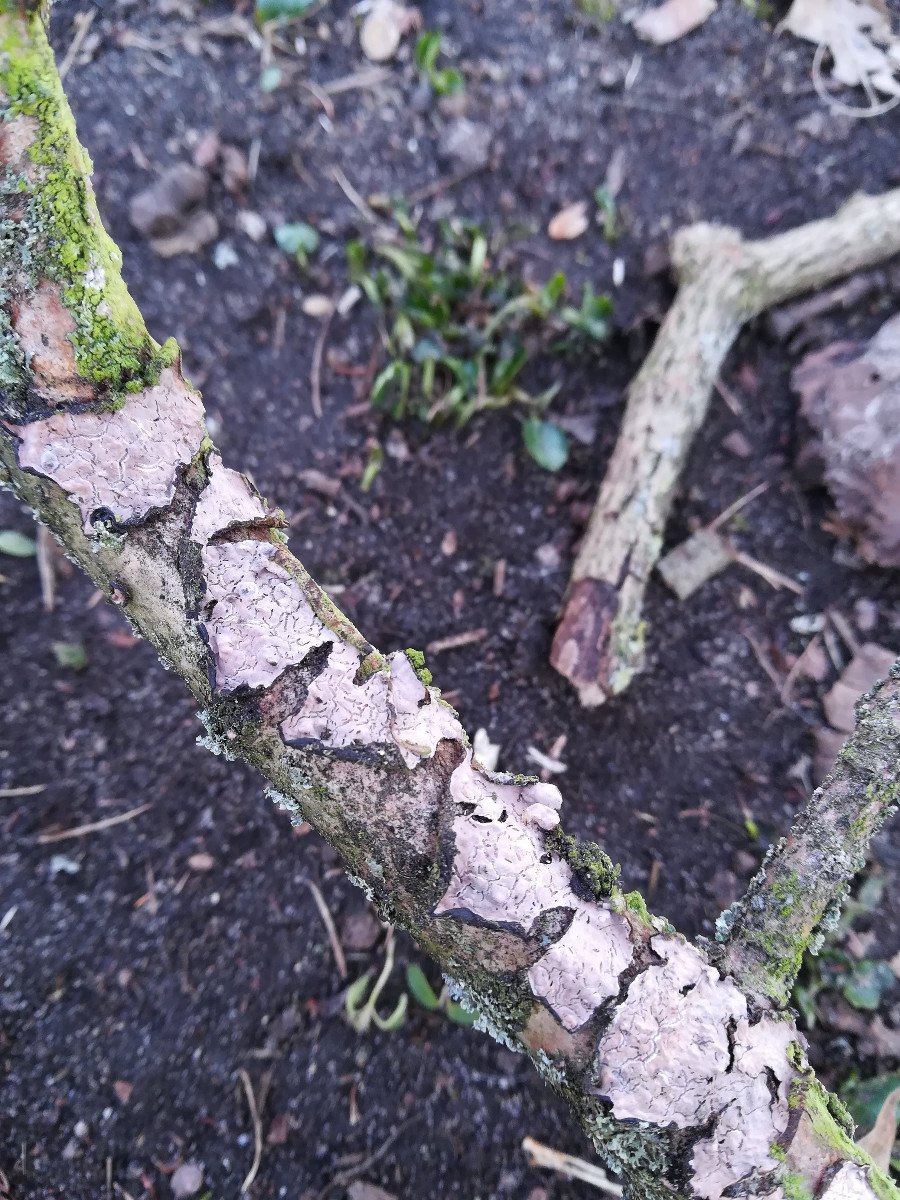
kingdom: Fungi
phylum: Basidiomycota
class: Agaricomycetes
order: Russulales
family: Peniophoraceae
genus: Peniophora
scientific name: Peniophora quercina
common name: ege-voksskind
